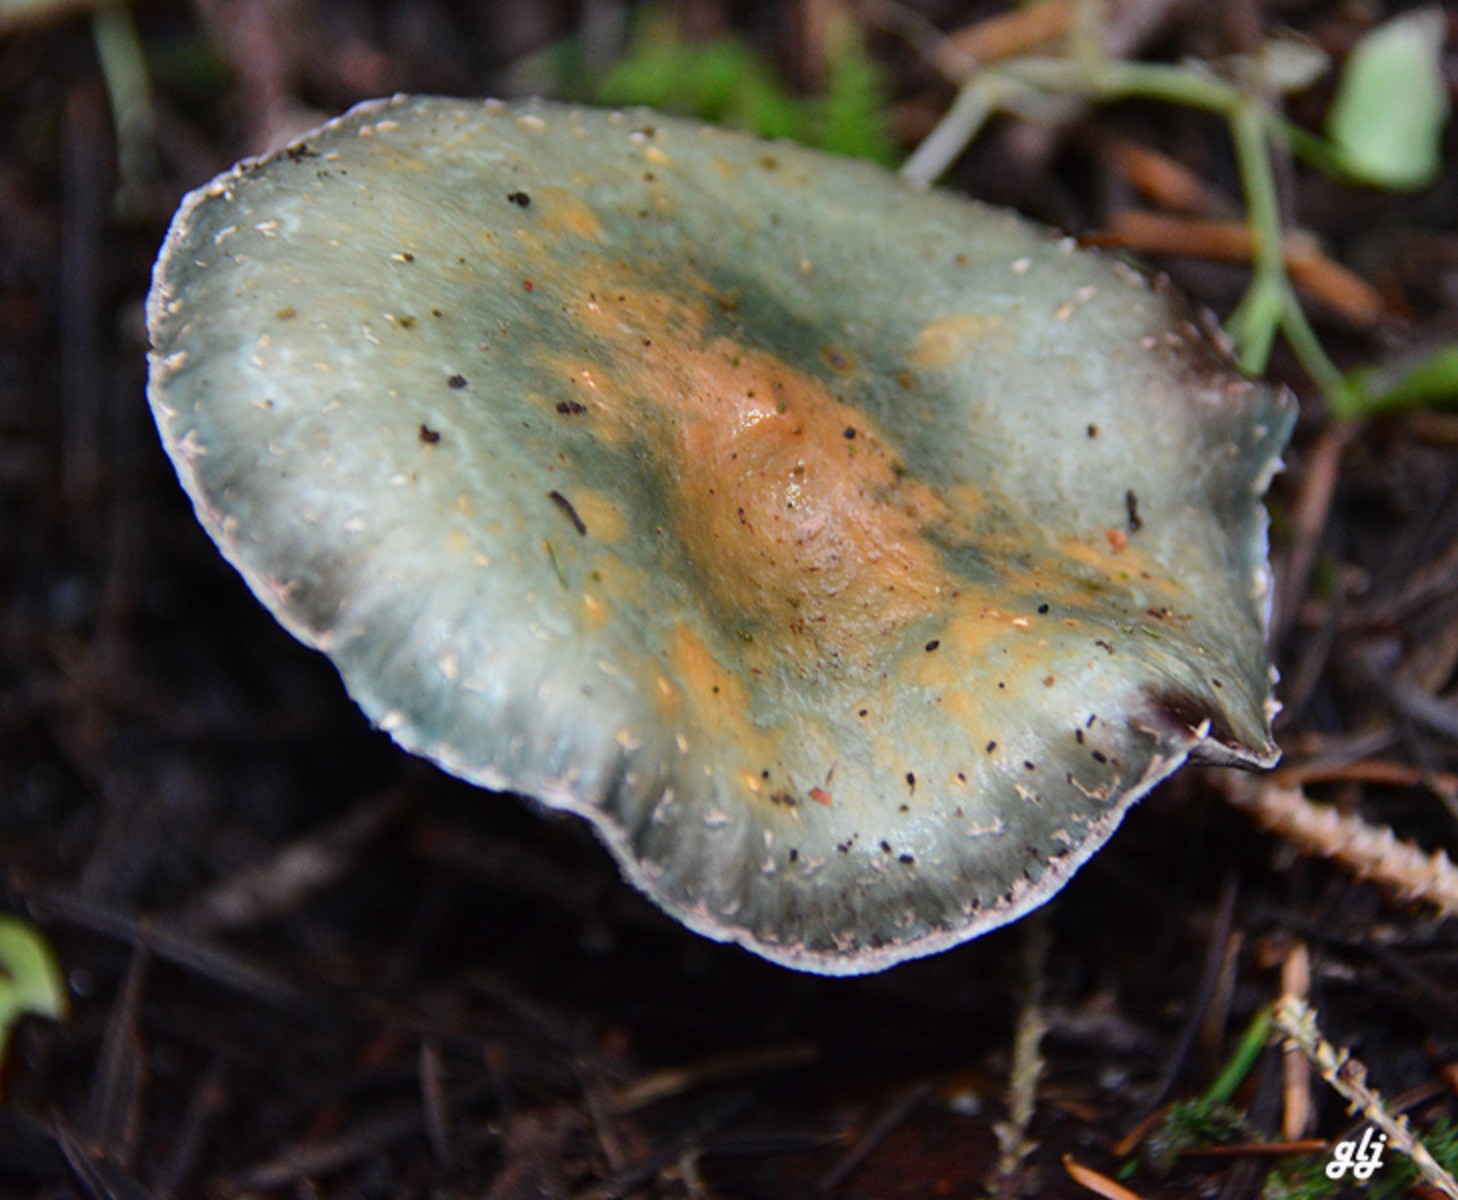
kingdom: Fungi
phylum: Basidiomycota
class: Agaricomycetes
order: Agaricales
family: Strophariaceae
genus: Stropharia
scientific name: Stropharia aeruginosa
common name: spanskgrøn bredblad
